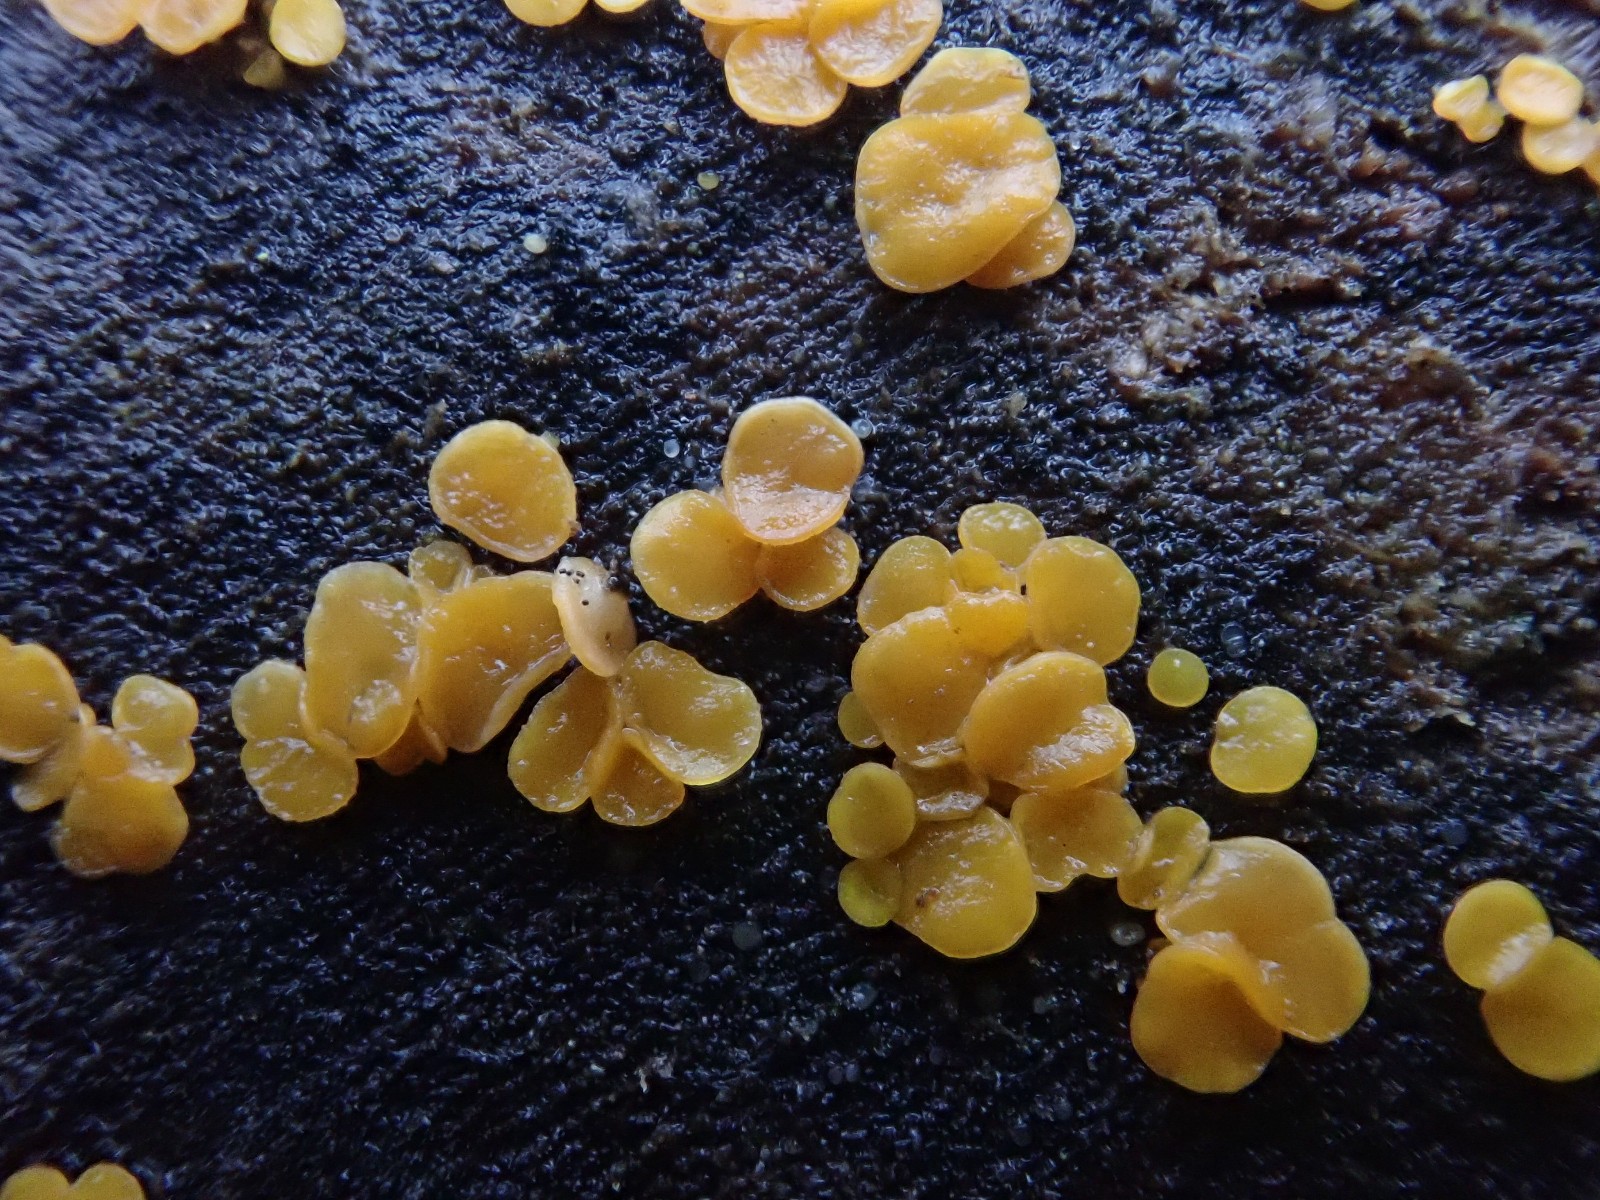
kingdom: Fungi
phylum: Ascomycota
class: Leotiomycetes
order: Helotiales
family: Helotiaceae
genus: Bisporella
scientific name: Bisporella subpallida
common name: lys snitskive
